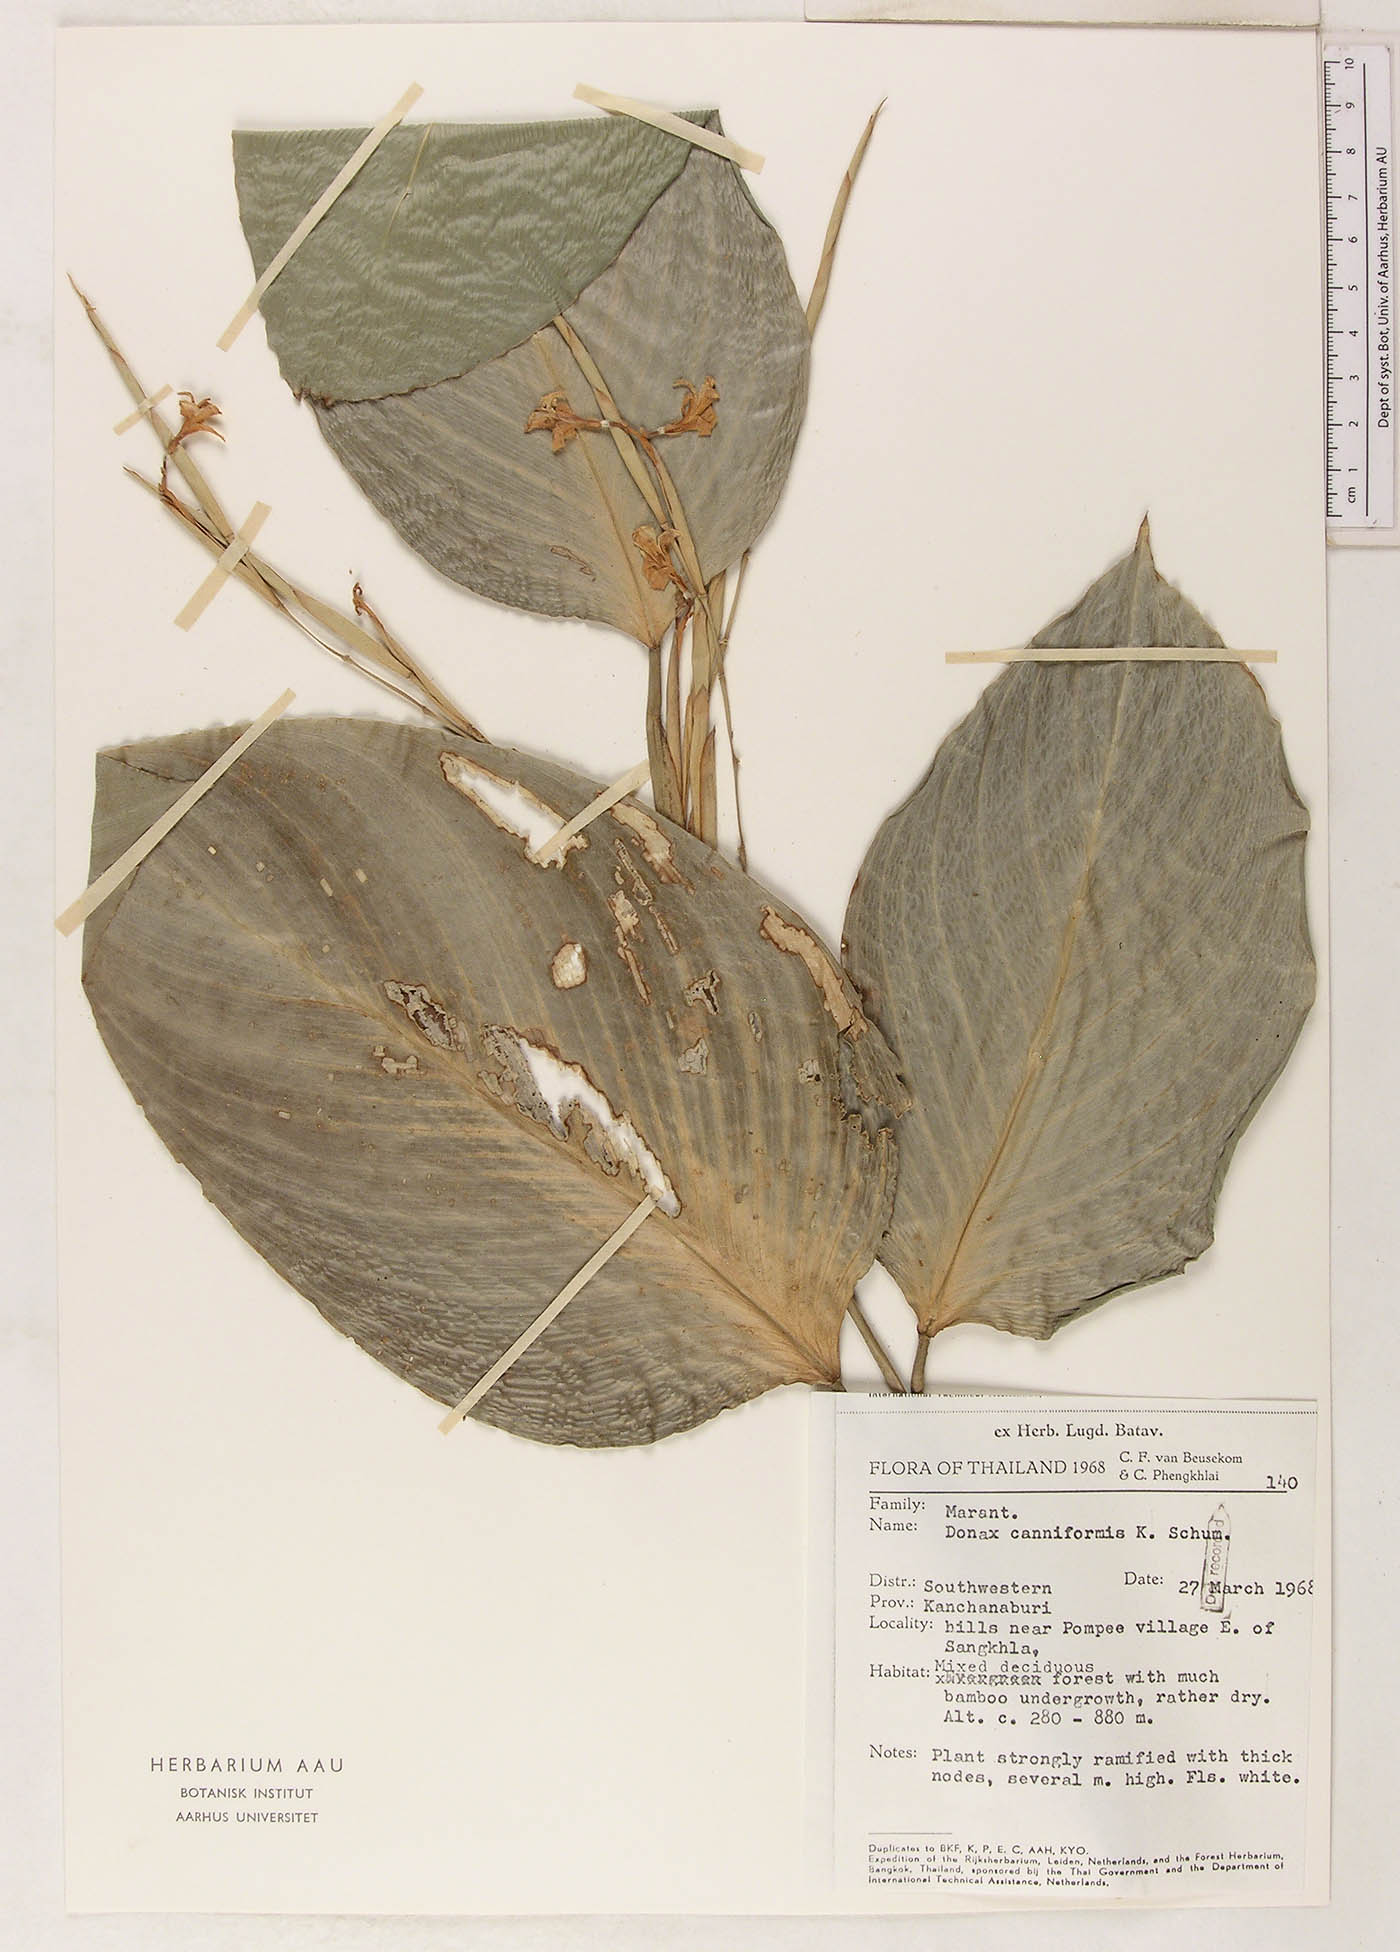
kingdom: Plantae
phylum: Tracheophyta
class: Liliopsida
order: Zingiberales
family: Marantaceae
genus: Donax
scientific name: Donax canniformis
